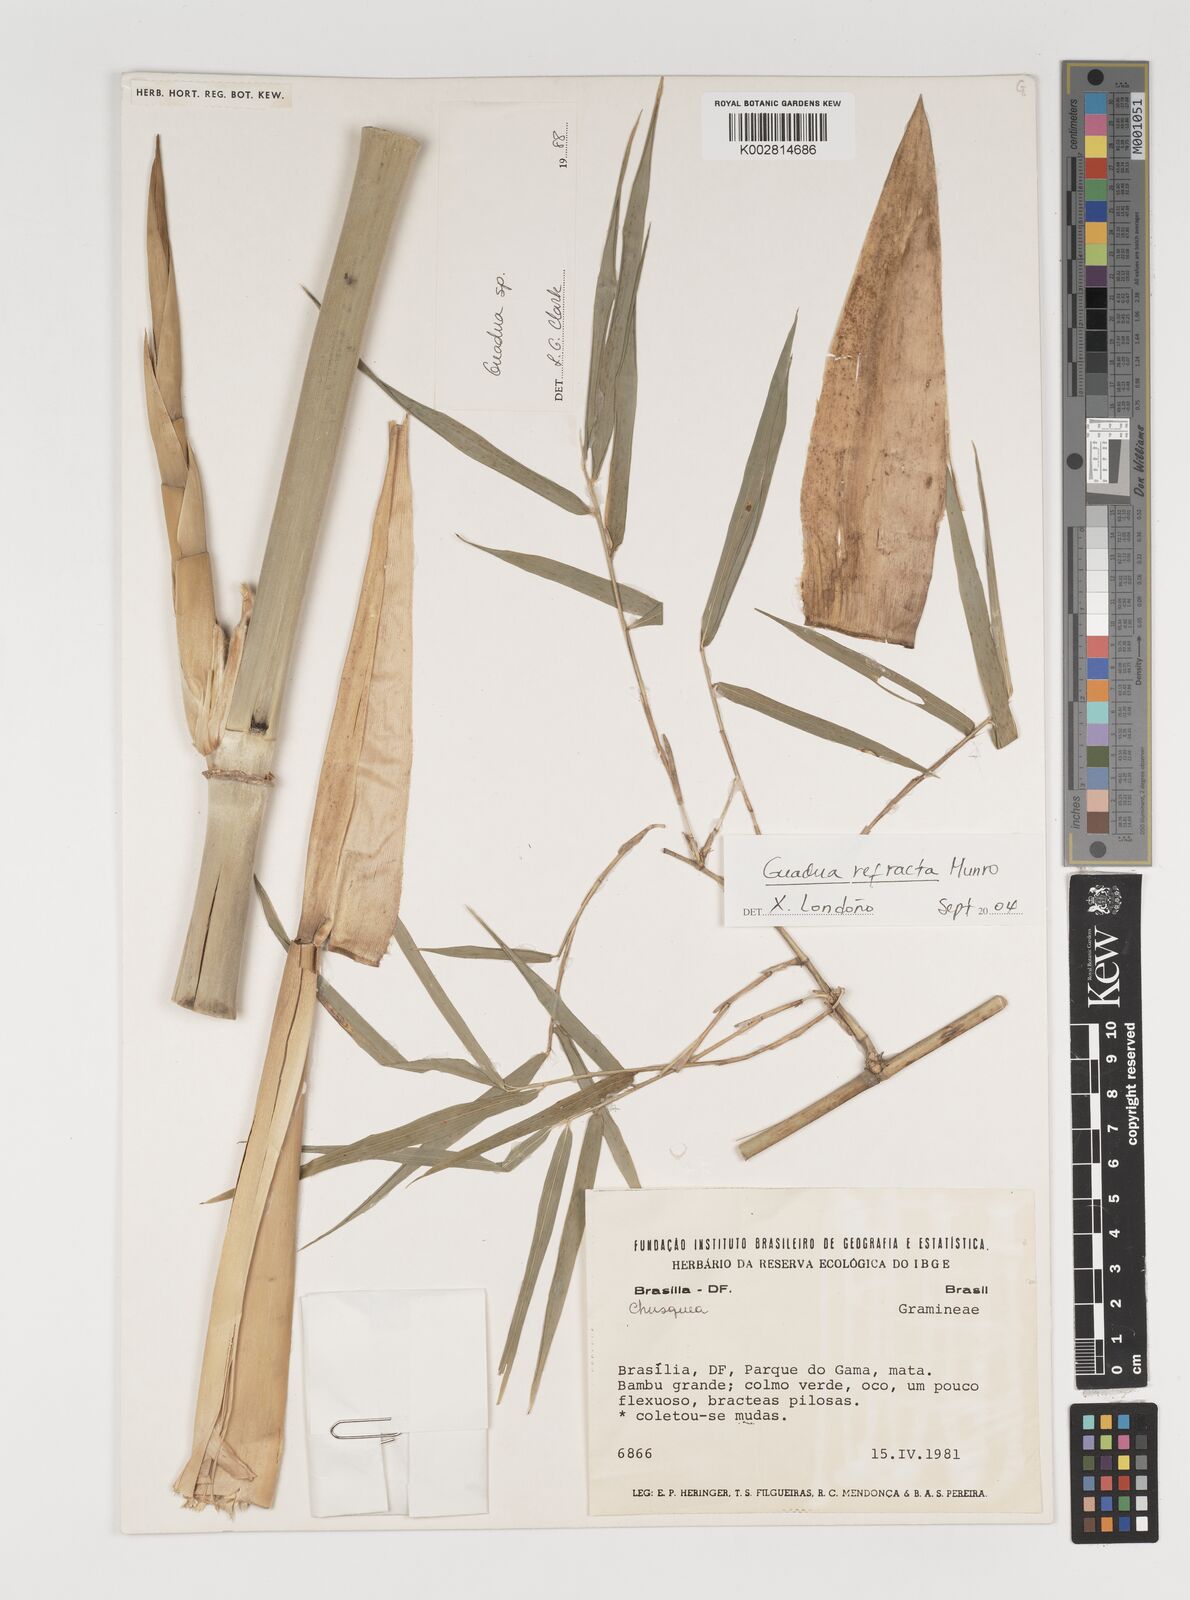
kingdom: Plantae
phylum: Tracheophyta
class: Liliopsida
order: Poales
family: Poaceae
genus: Guadua
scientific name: Guadua refracta
